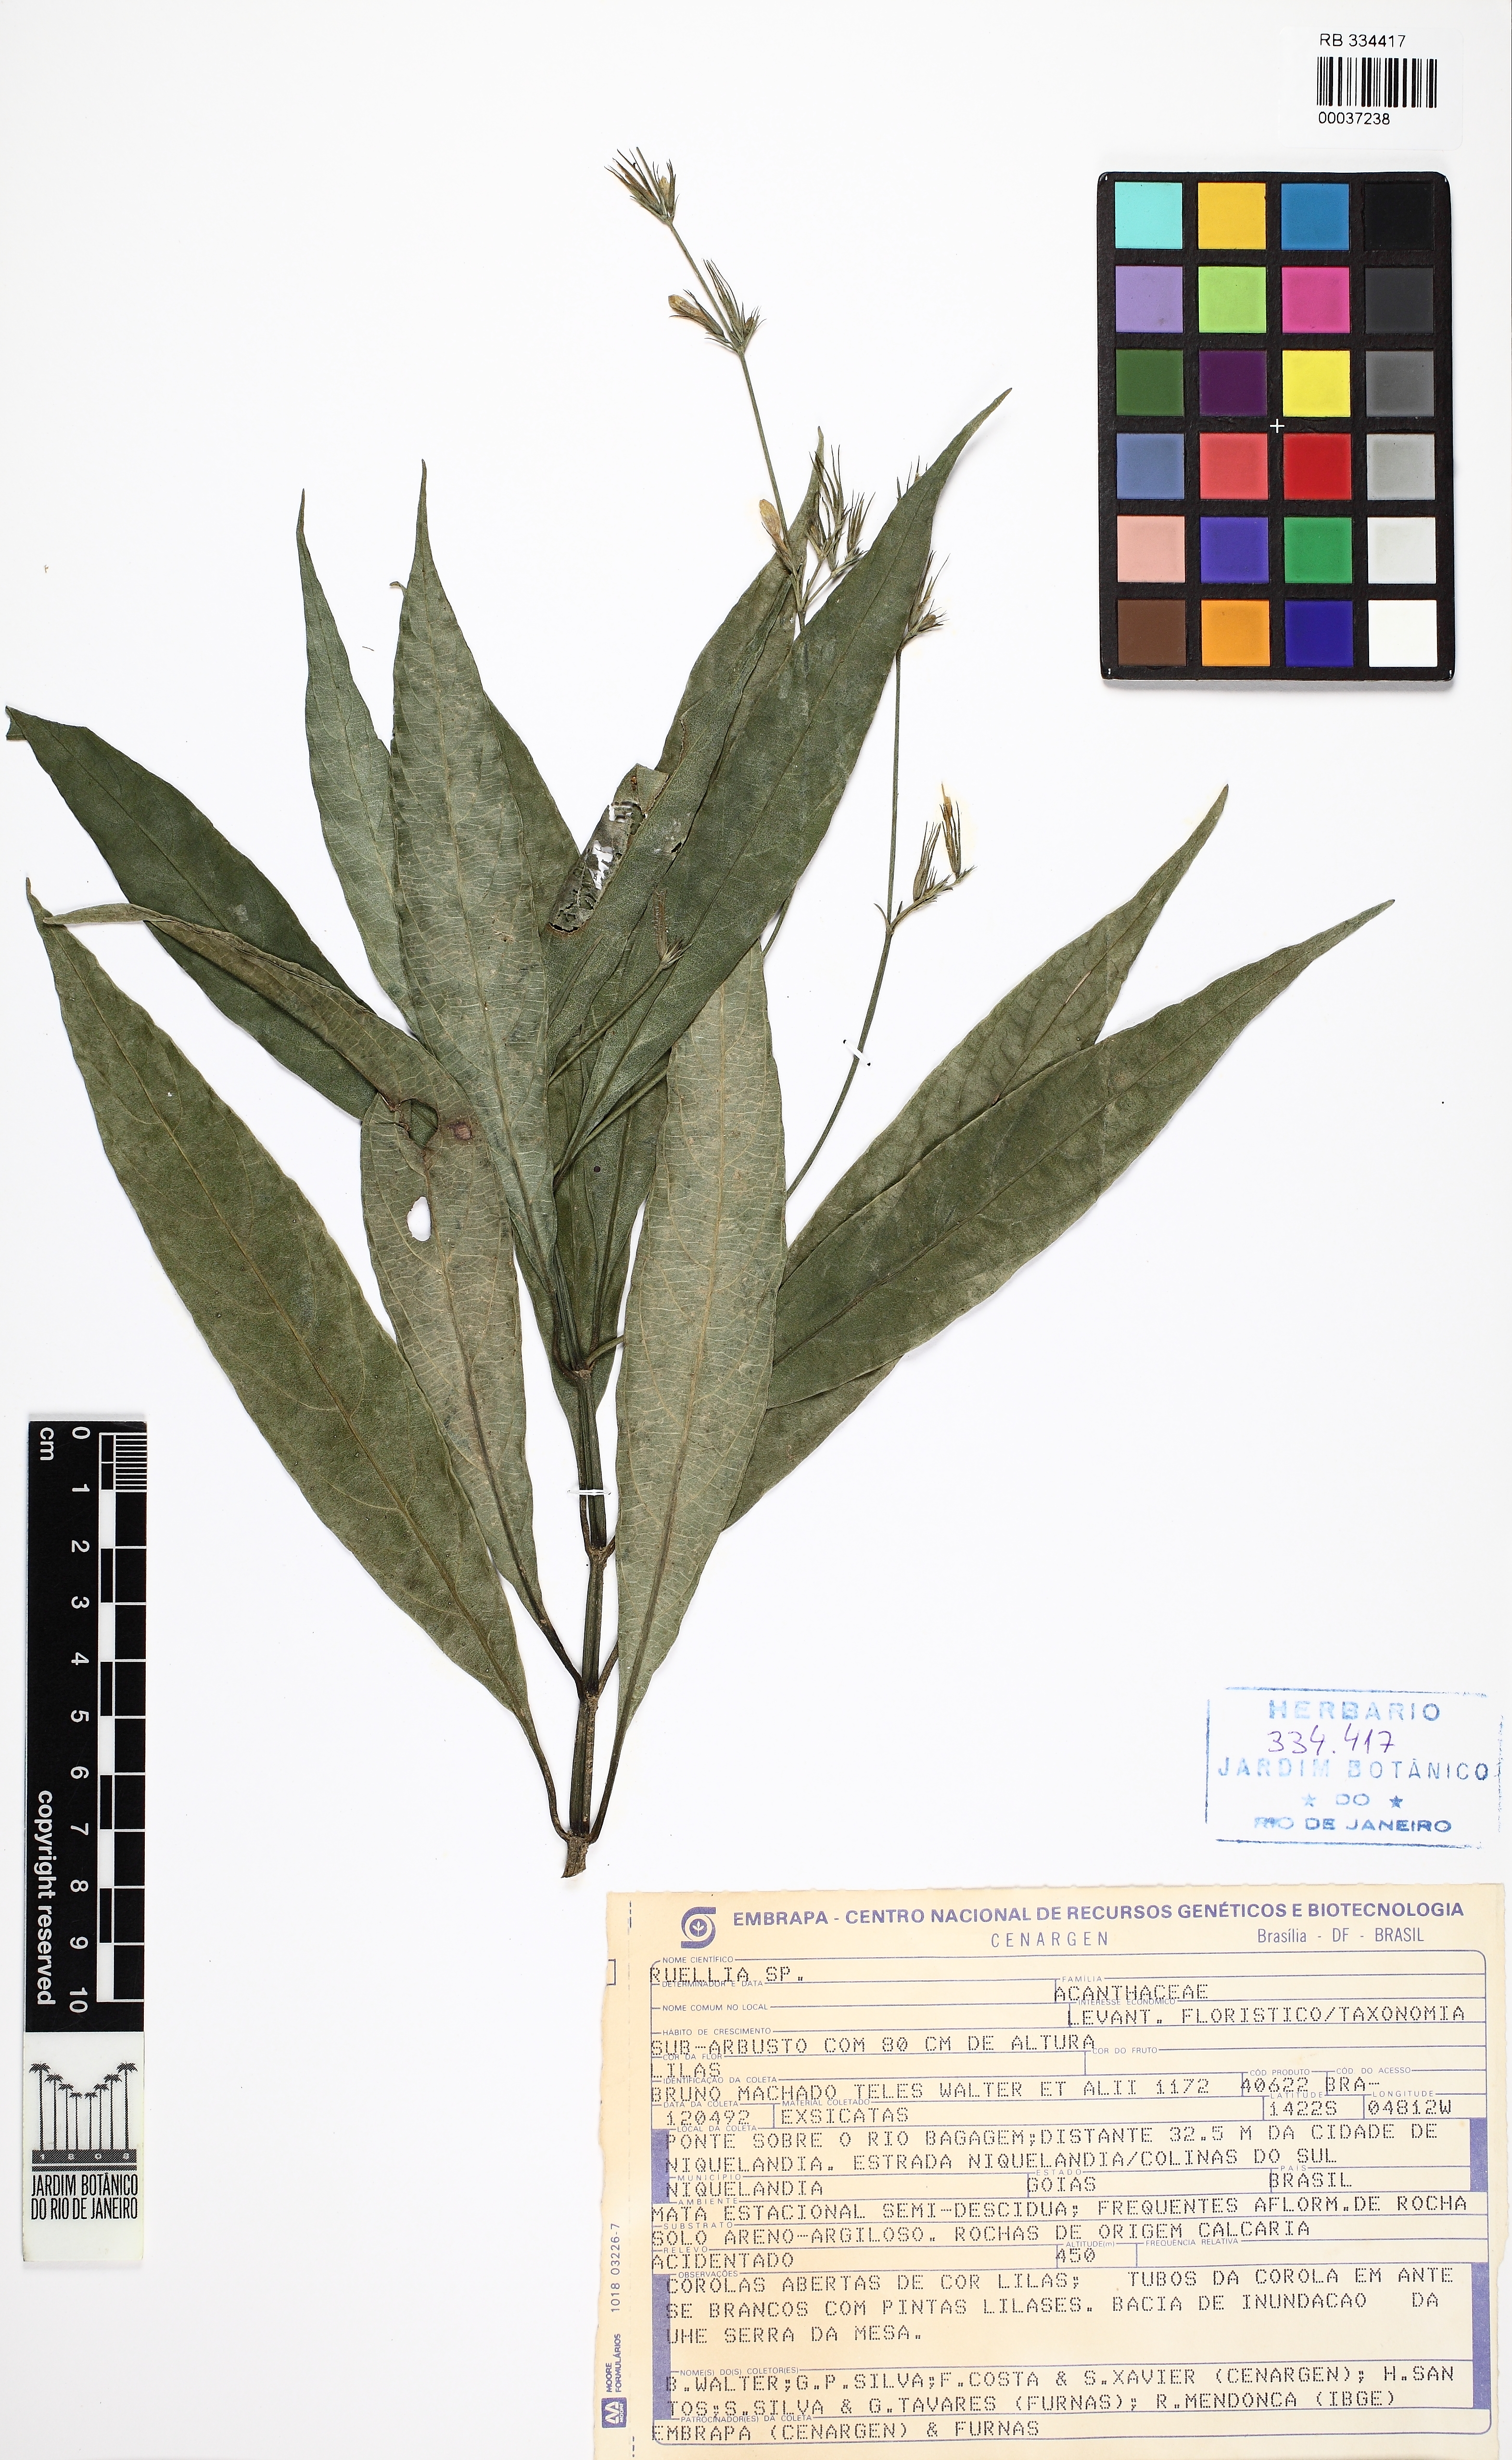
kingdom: Plantae
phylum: Tracheophyta
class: Magnoliopsida
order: Lamiales
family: Acanthaceae
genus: Ruellia
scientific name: Ruellia costata
